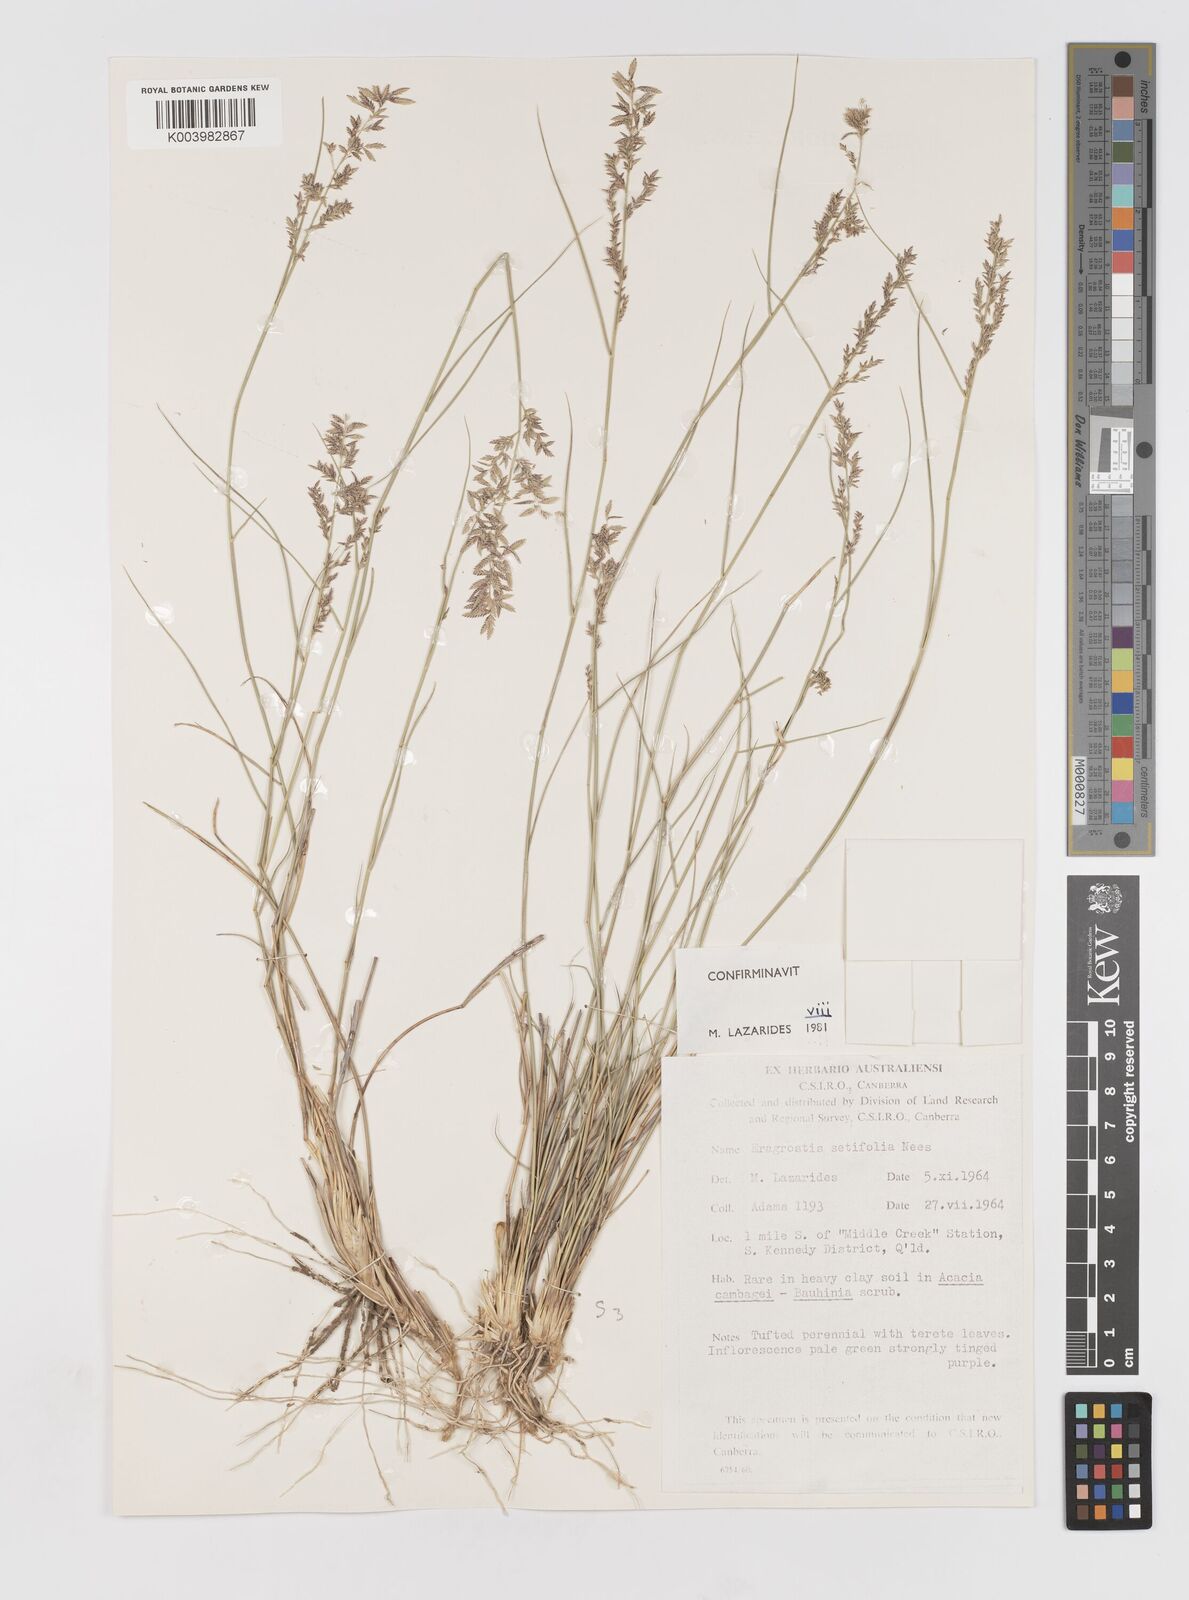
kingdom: Plantae
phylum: Tracheophyta
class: Liliopsida
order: Poales
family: Poaceae
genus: Eragrostis
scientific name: Eragrostis setifolia
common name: Bristleleaf lovegrass
